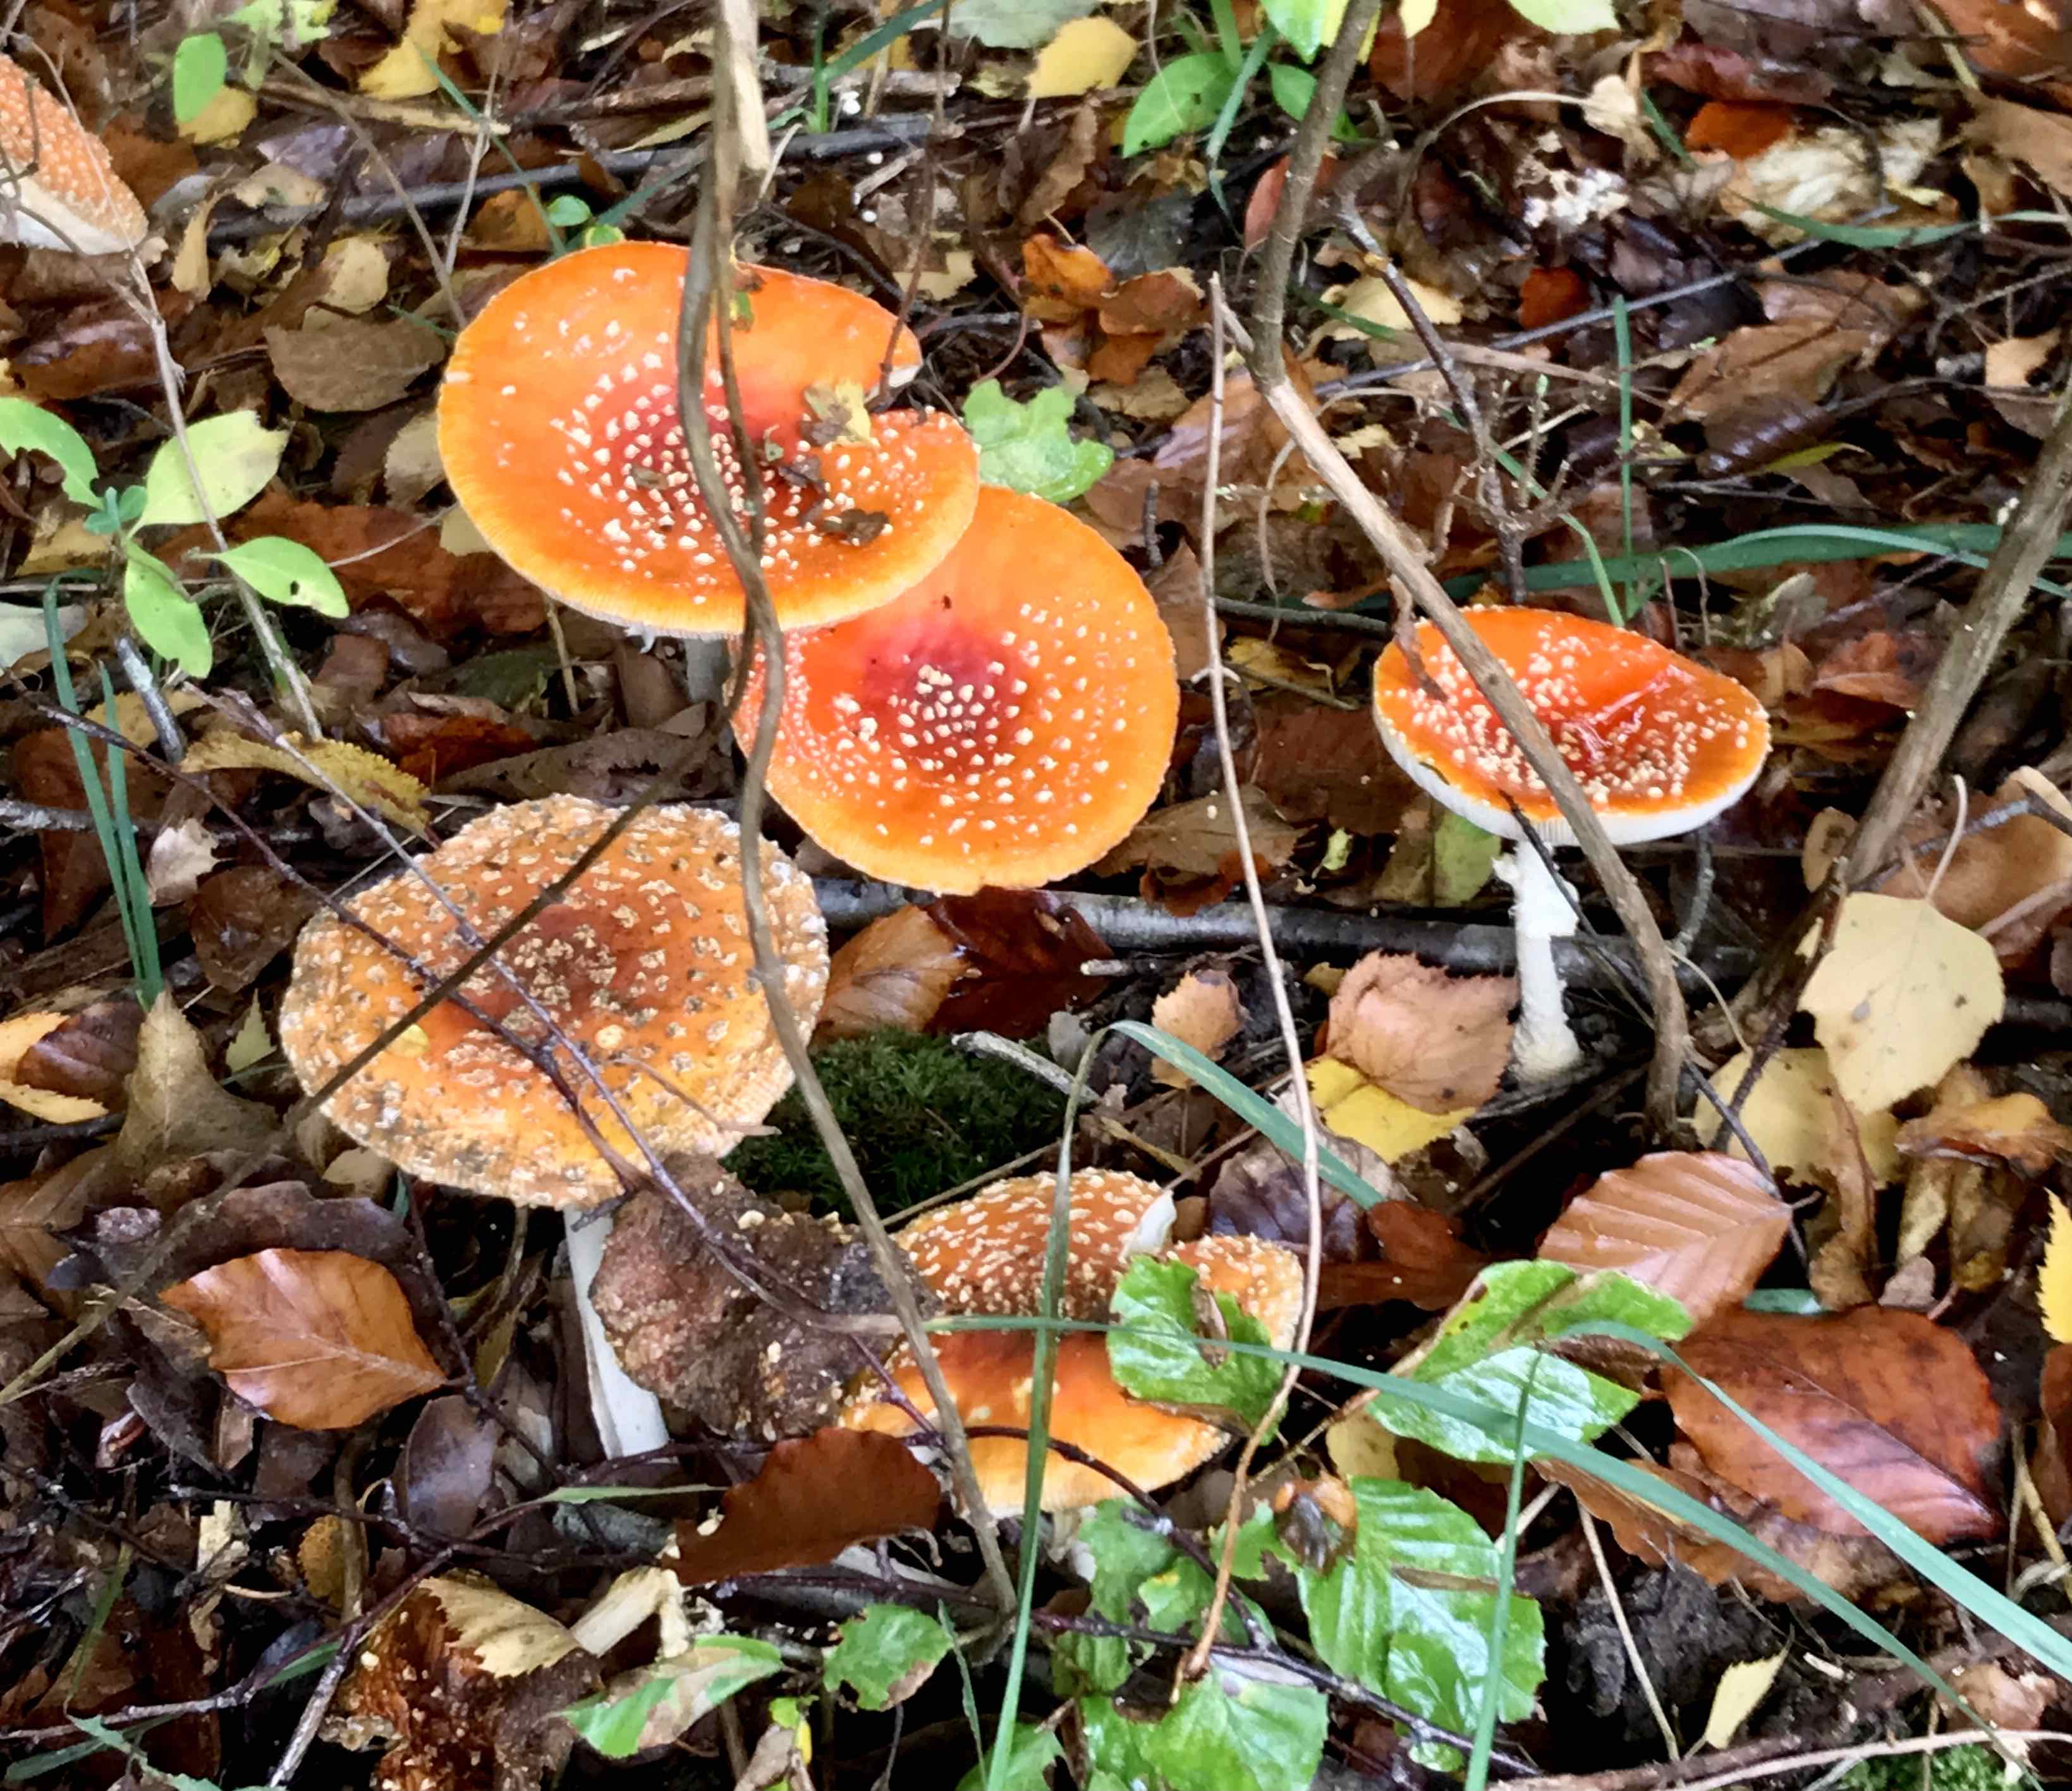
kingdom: Fungi
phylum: Basidiomycota
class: Agaricomycetes
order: Agaricales
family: Amanitaceae
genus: Amanita
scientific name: Amanita muscaria
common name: rød fluesvamp
